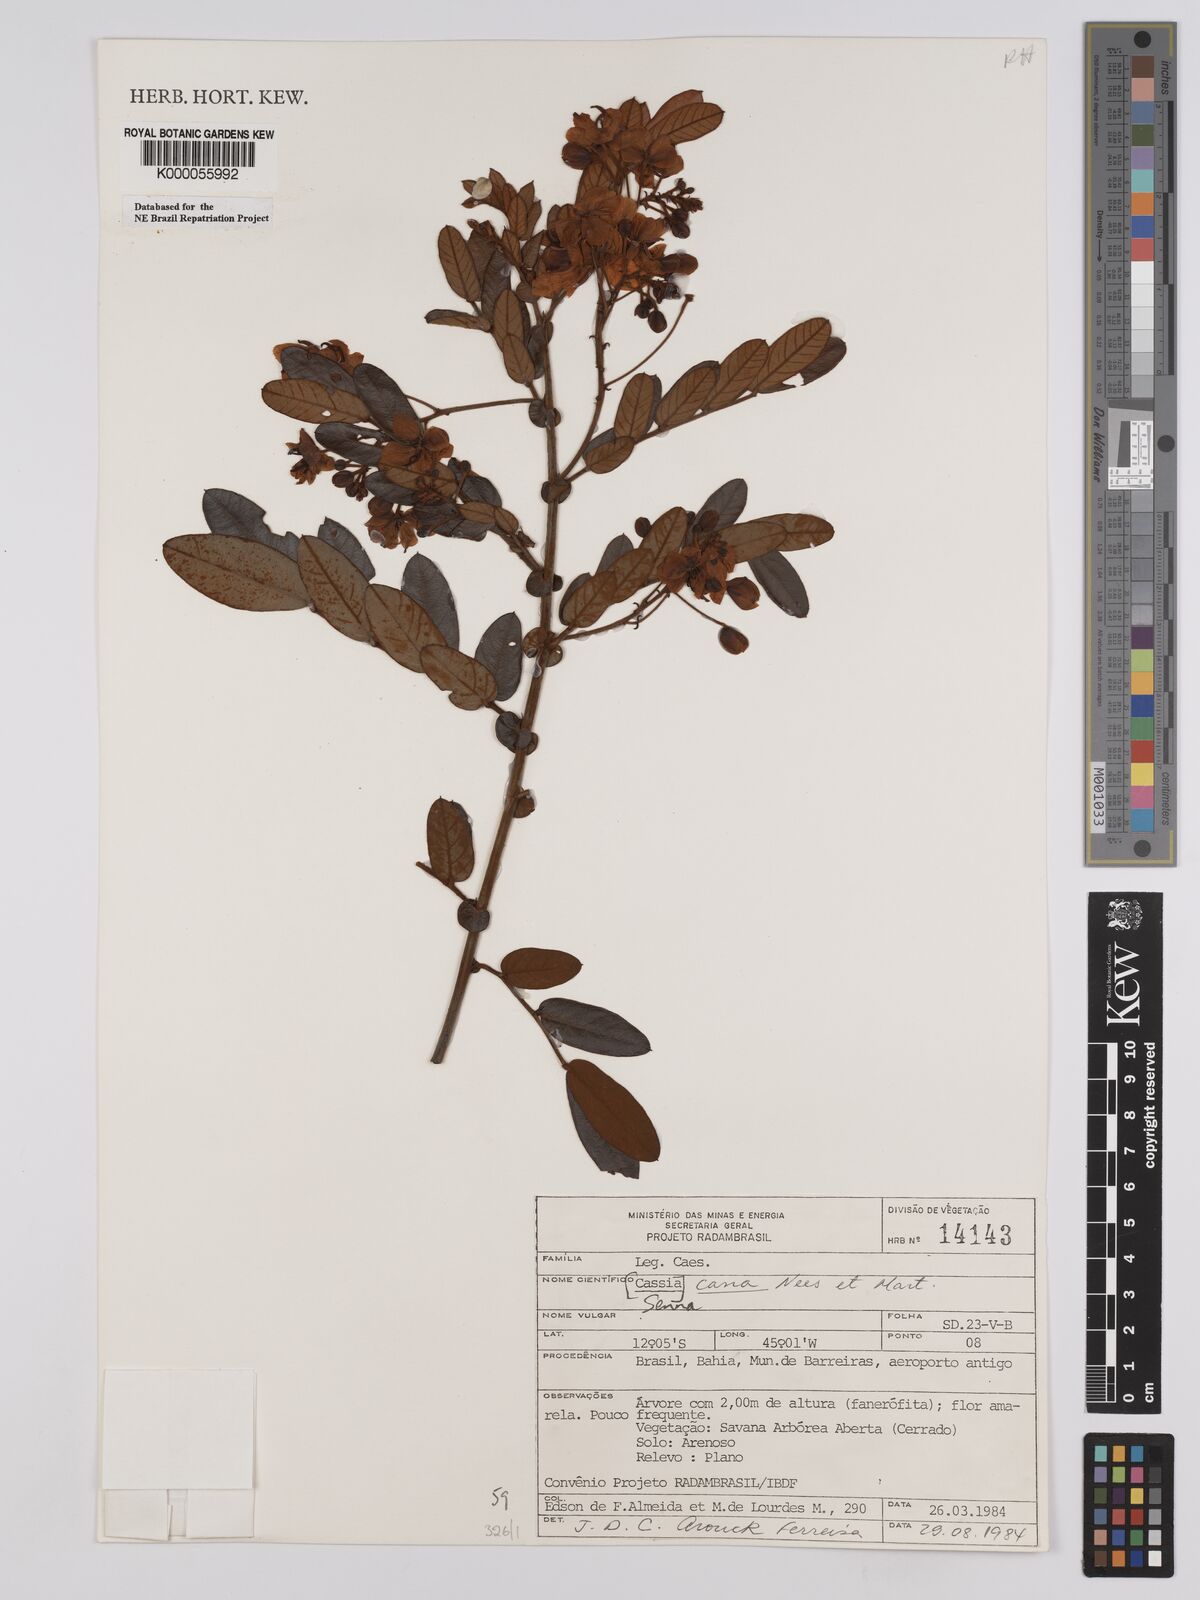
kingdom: Plantae
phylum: Tracheophyta
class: Magnoliopsida
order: Fabales
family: Fabaceae
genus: Senna
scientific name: Senna cana
